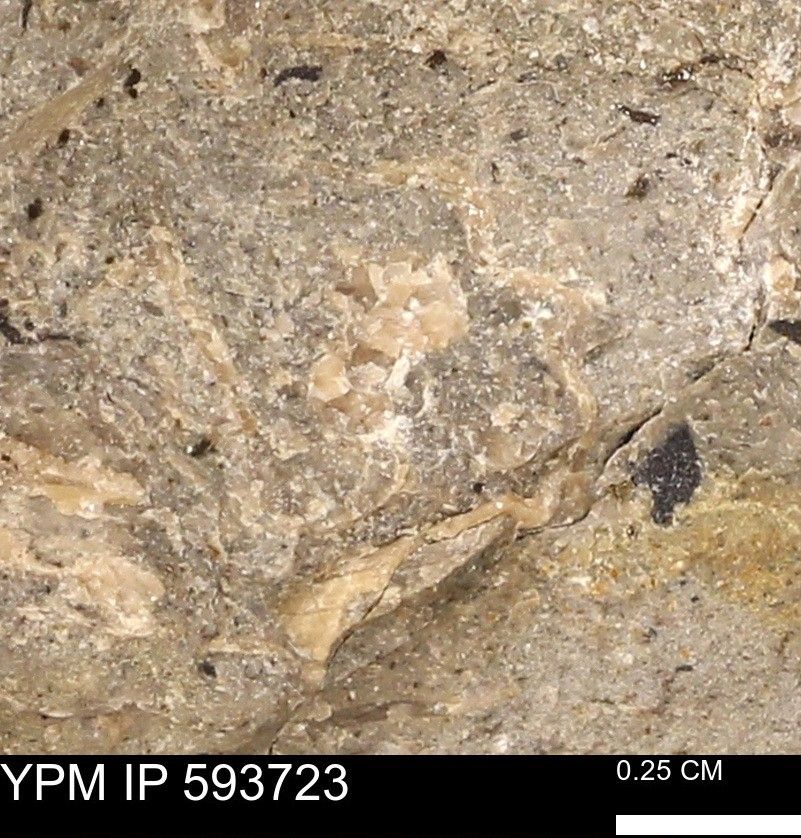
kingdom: Animalia
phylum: Mollusca
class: Cephalopoda
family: Baculitidae
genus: Baculites
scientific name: Baculites
